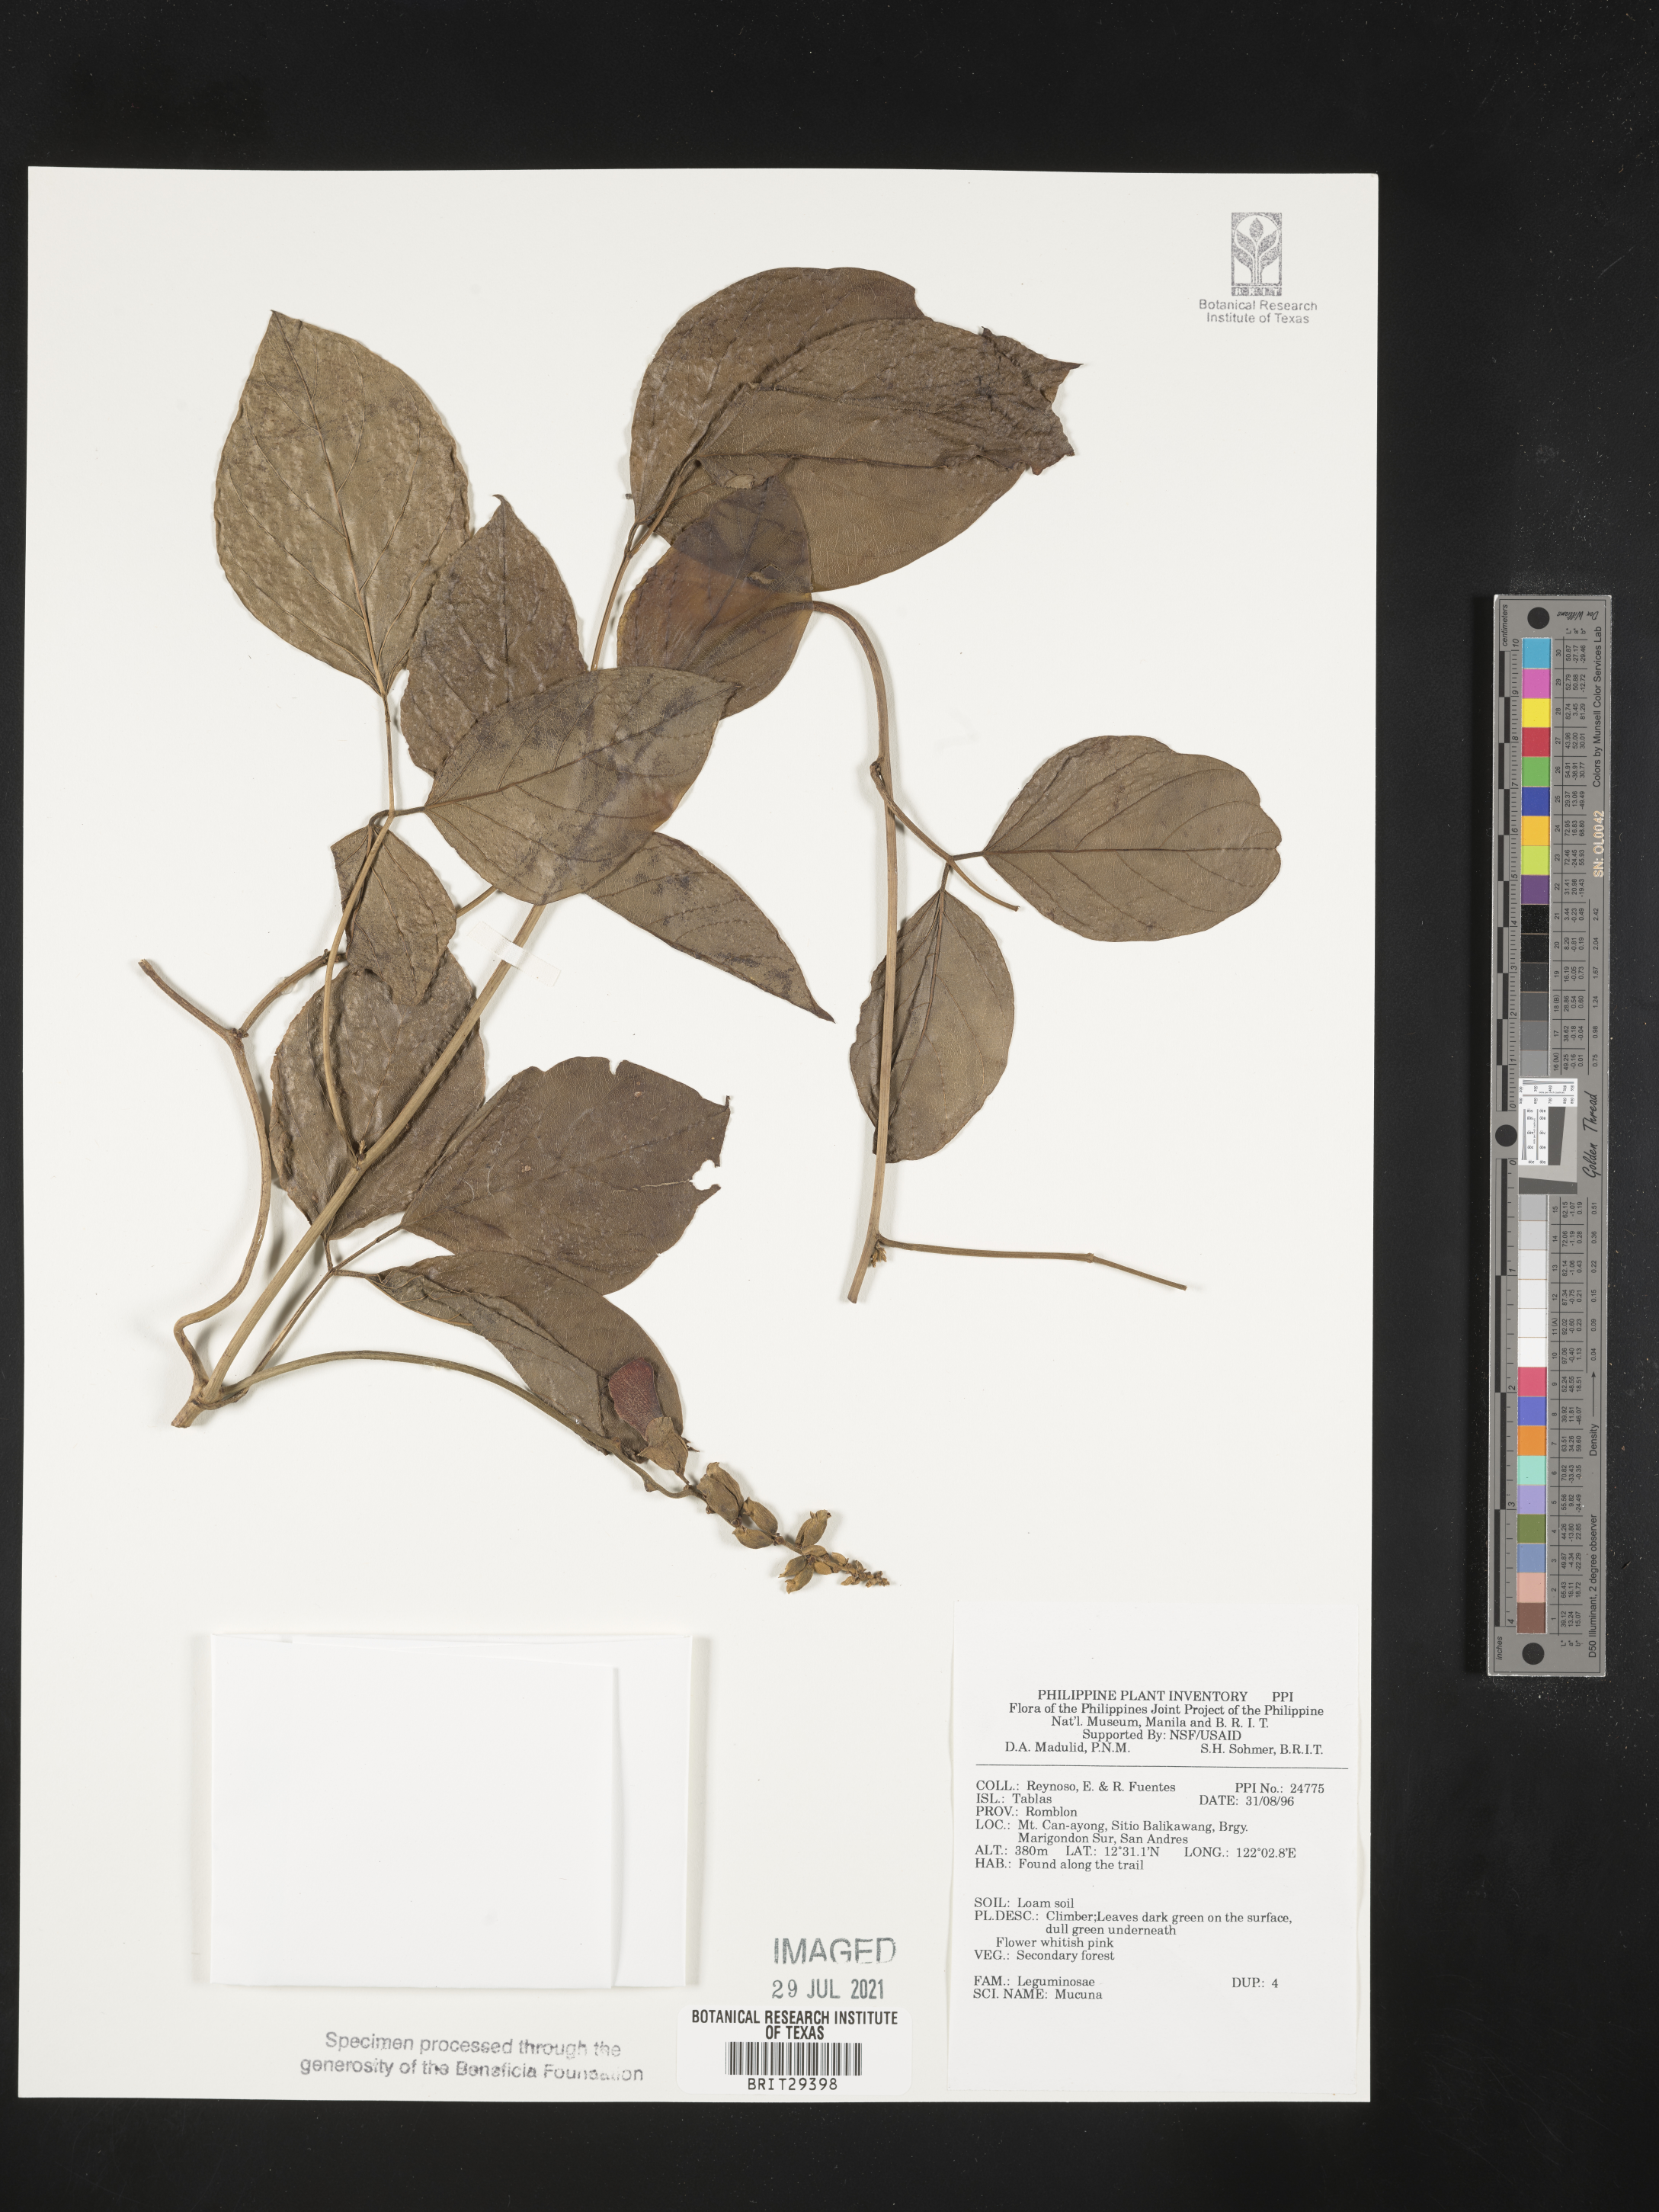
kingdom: Plantae
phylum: Tracheophyta
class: Magnoliopsida
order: Fabales
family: Fabaceae
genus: Mucuna
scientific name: Mucuna
